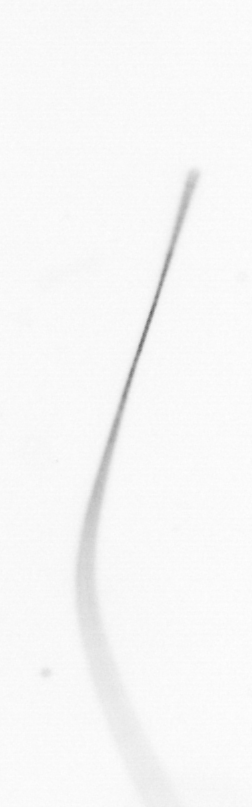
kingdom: Chromista
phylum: Ochrophyta
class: Bacillariophyceae
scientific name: Bacillariophyceae
